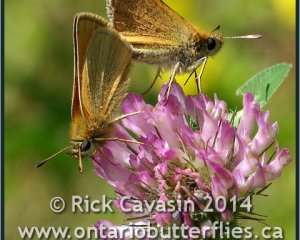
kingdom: Animalia
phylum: Arthropoda
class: Insecta
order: Lepidoptera
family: Hesperiidae
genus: Thymelicus
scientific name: Thymelicus lineola
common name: European Skipper
